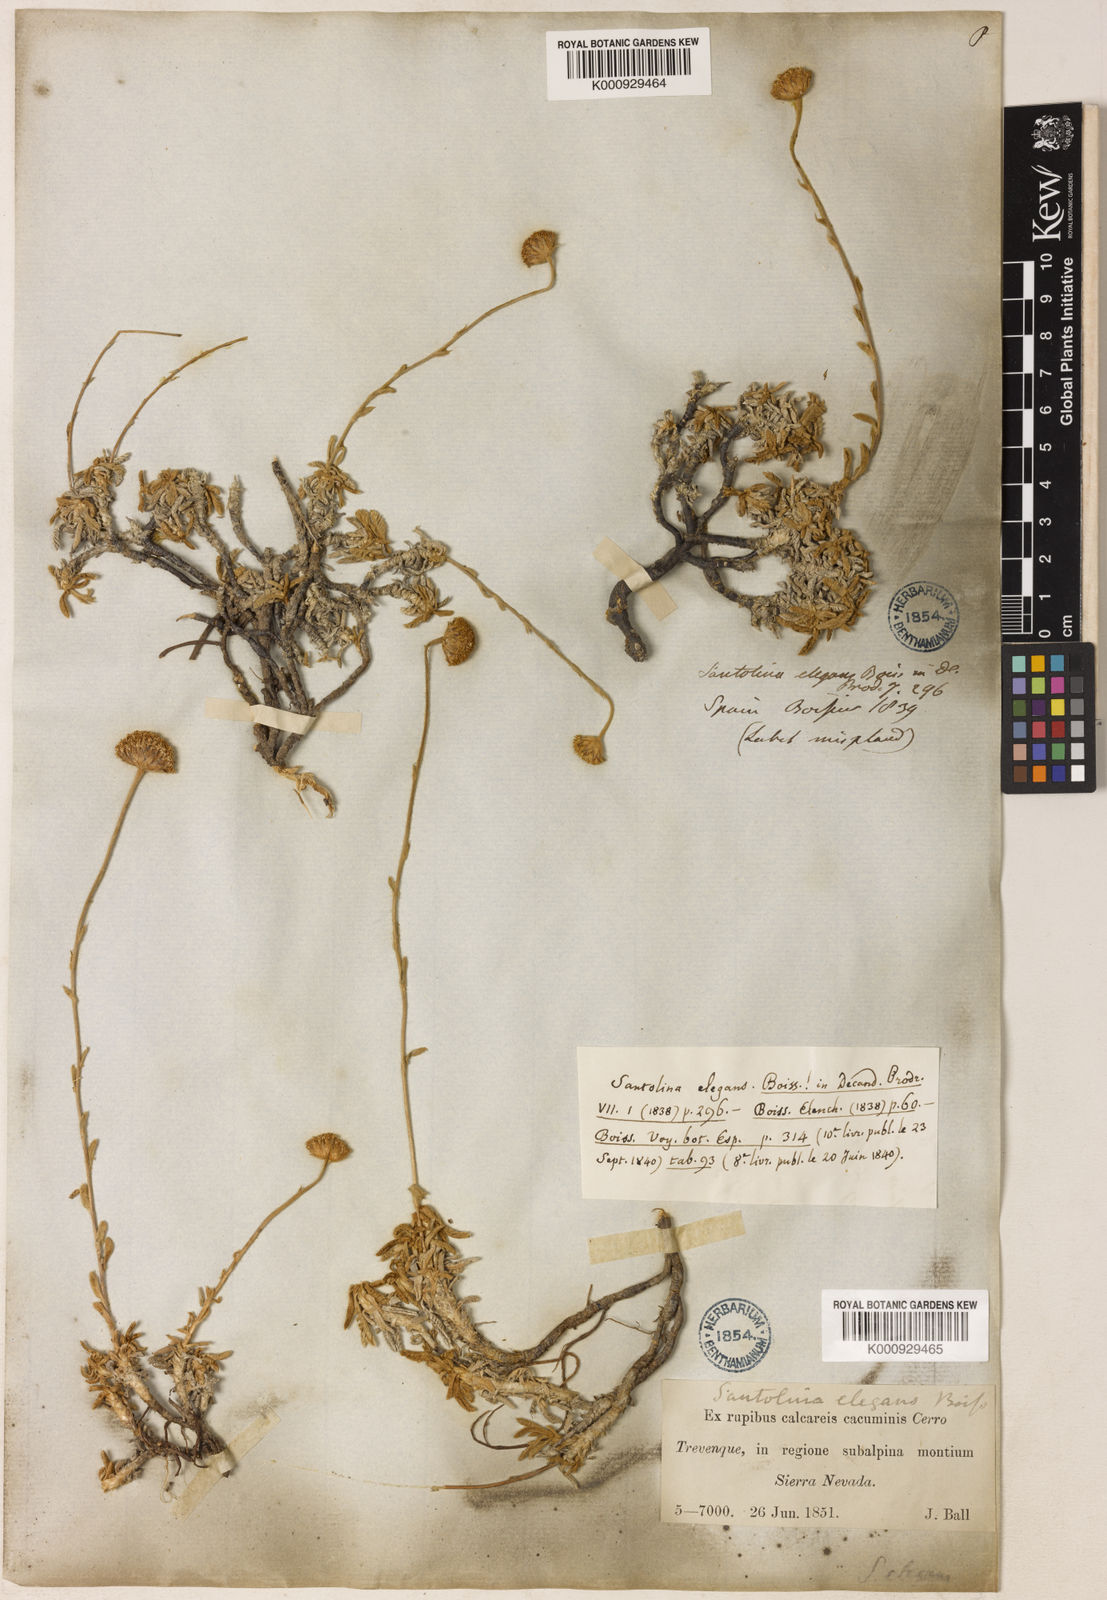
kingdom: Plantae
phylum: Tracheophyta
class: Magnoliopsida
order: Asterales
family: Asteraceae
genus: Santolina
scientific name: Santolina elegans
